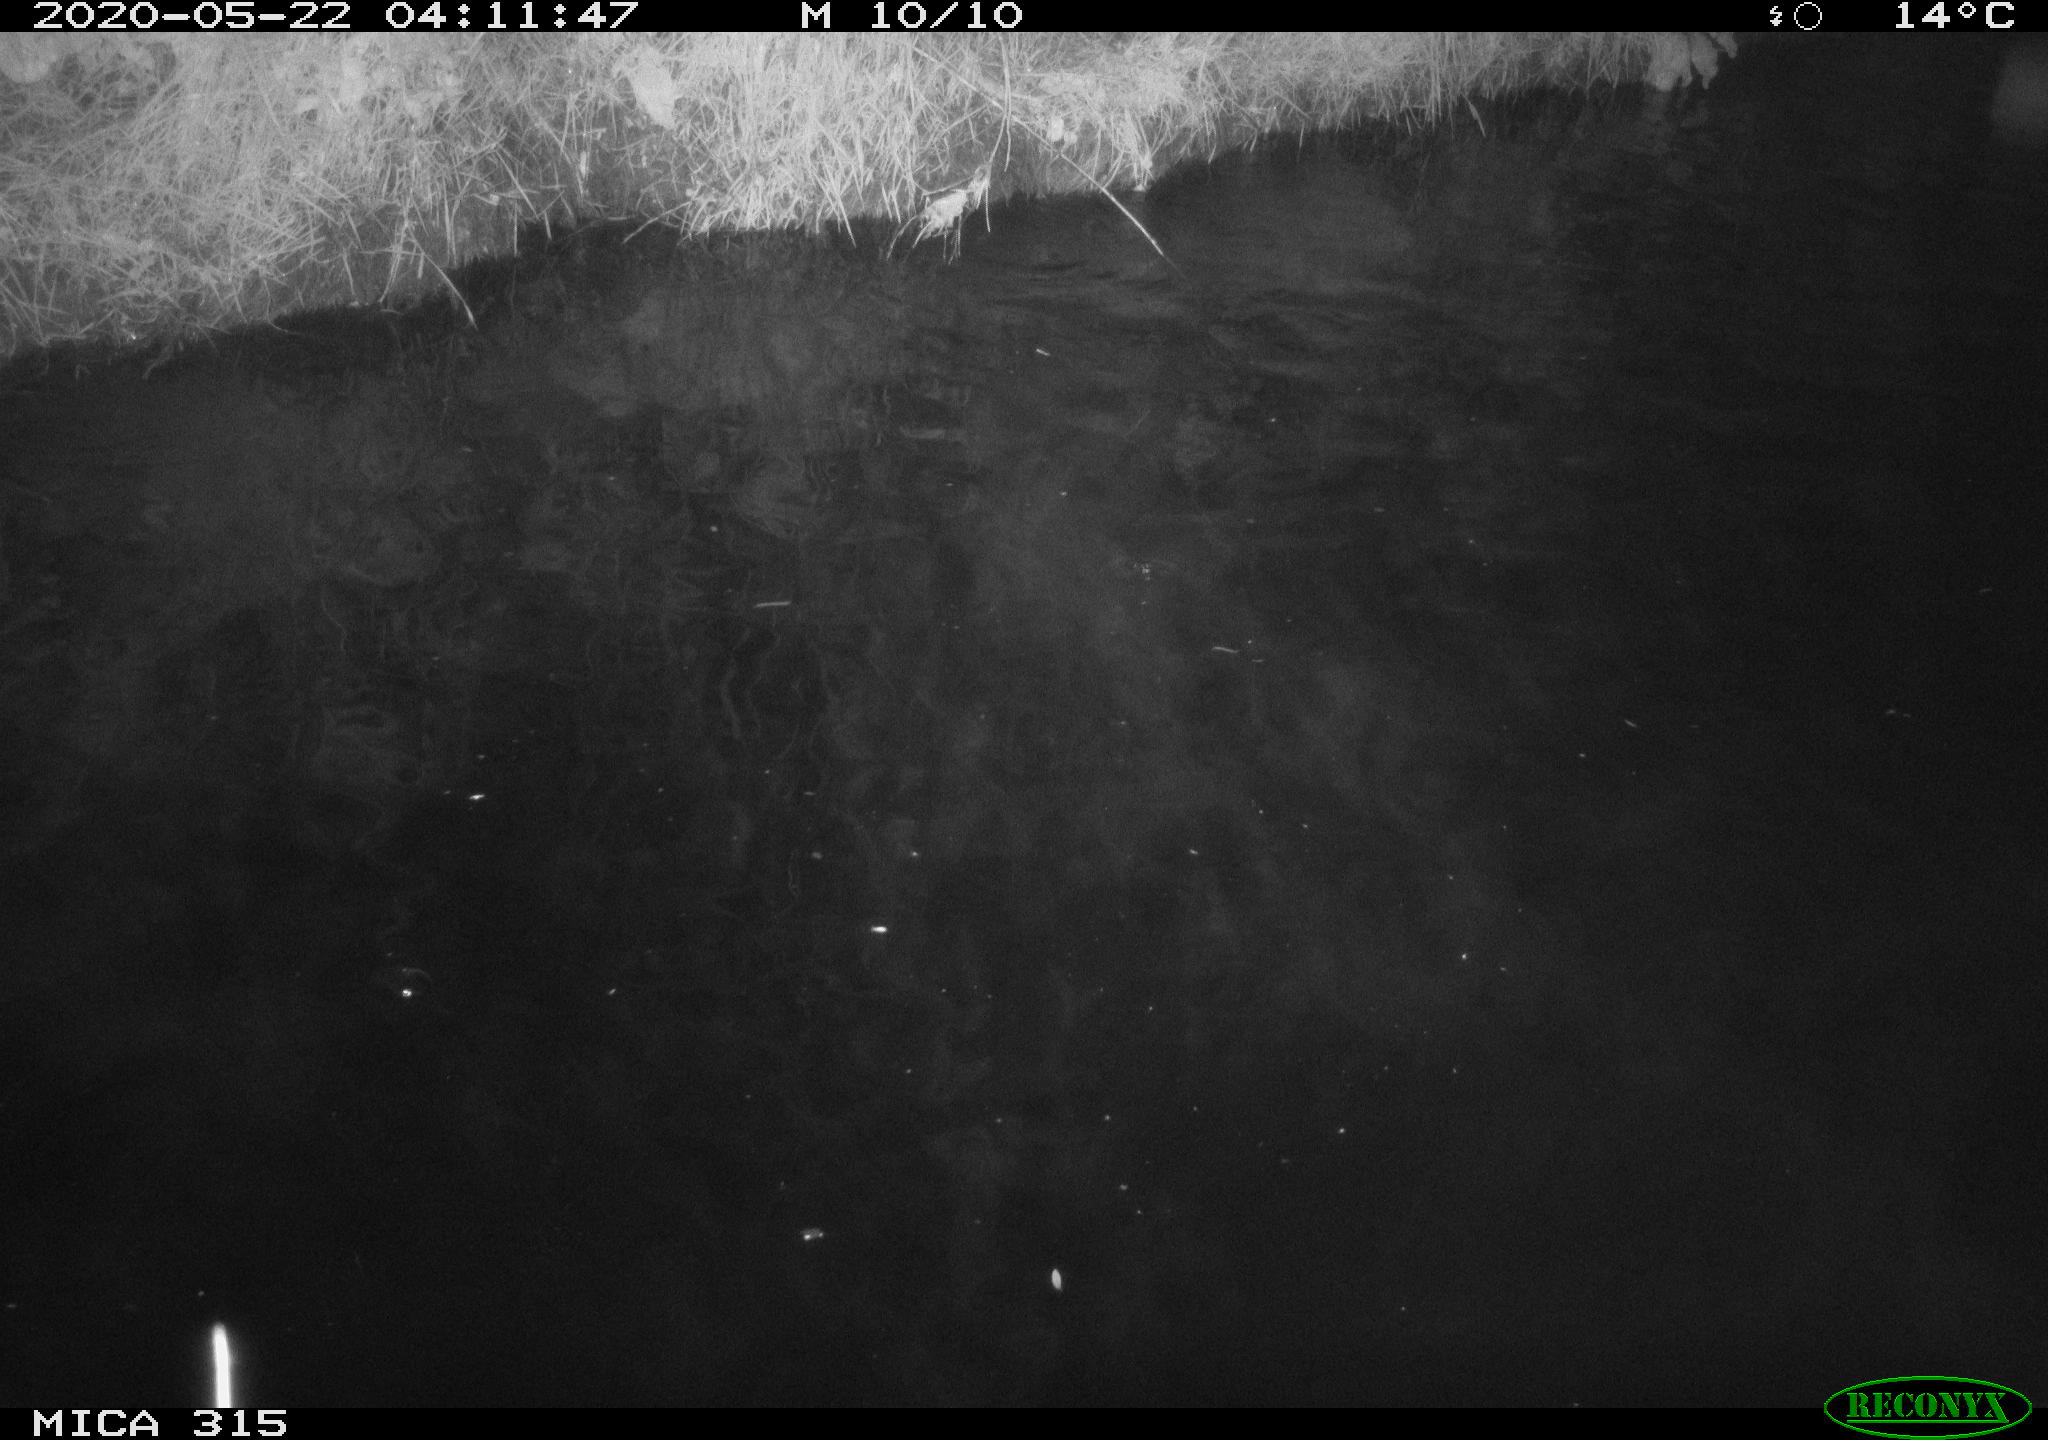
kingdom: Animalia
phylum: Chordata
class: Aves
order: Anseriformes
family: Anatidae
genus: Anas
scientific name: Anas platyrhynchos
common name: Mallard
